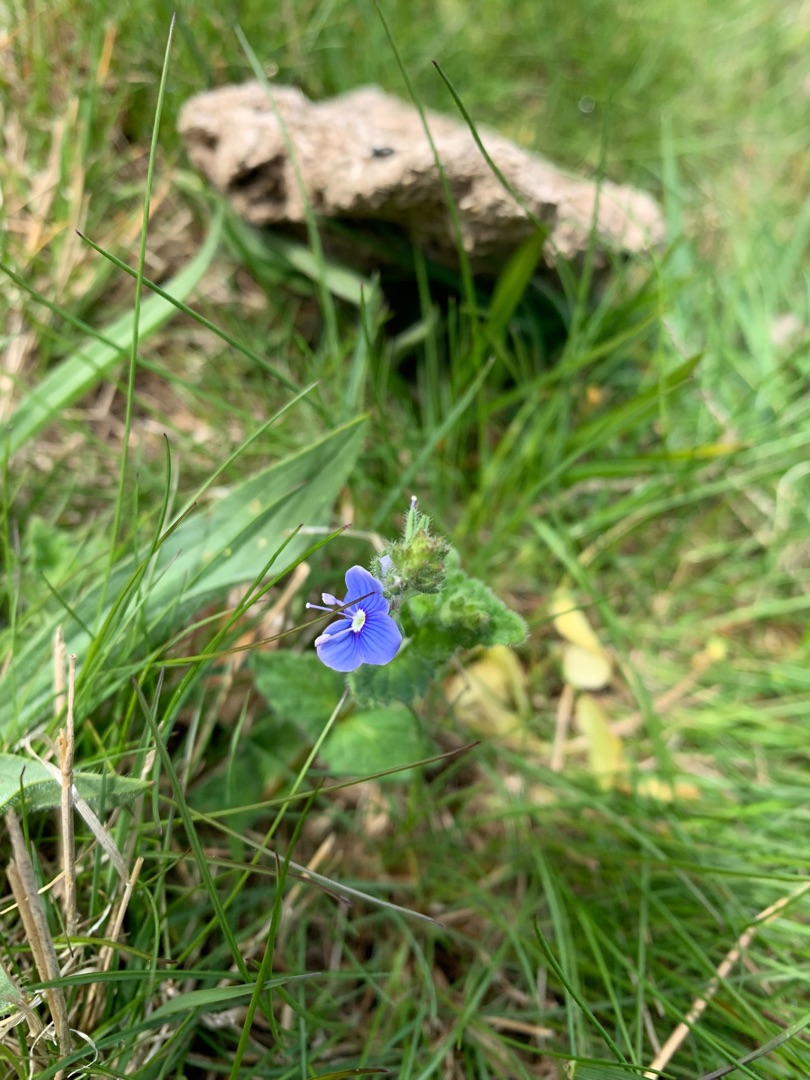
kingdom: Plantae
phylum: Tracheophyta
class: Magnoliopsida
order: Lamiales
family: Plantaginaceae
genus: Veronica
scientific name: Veronica chamaedrys
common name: Tveskægget ærenpris
